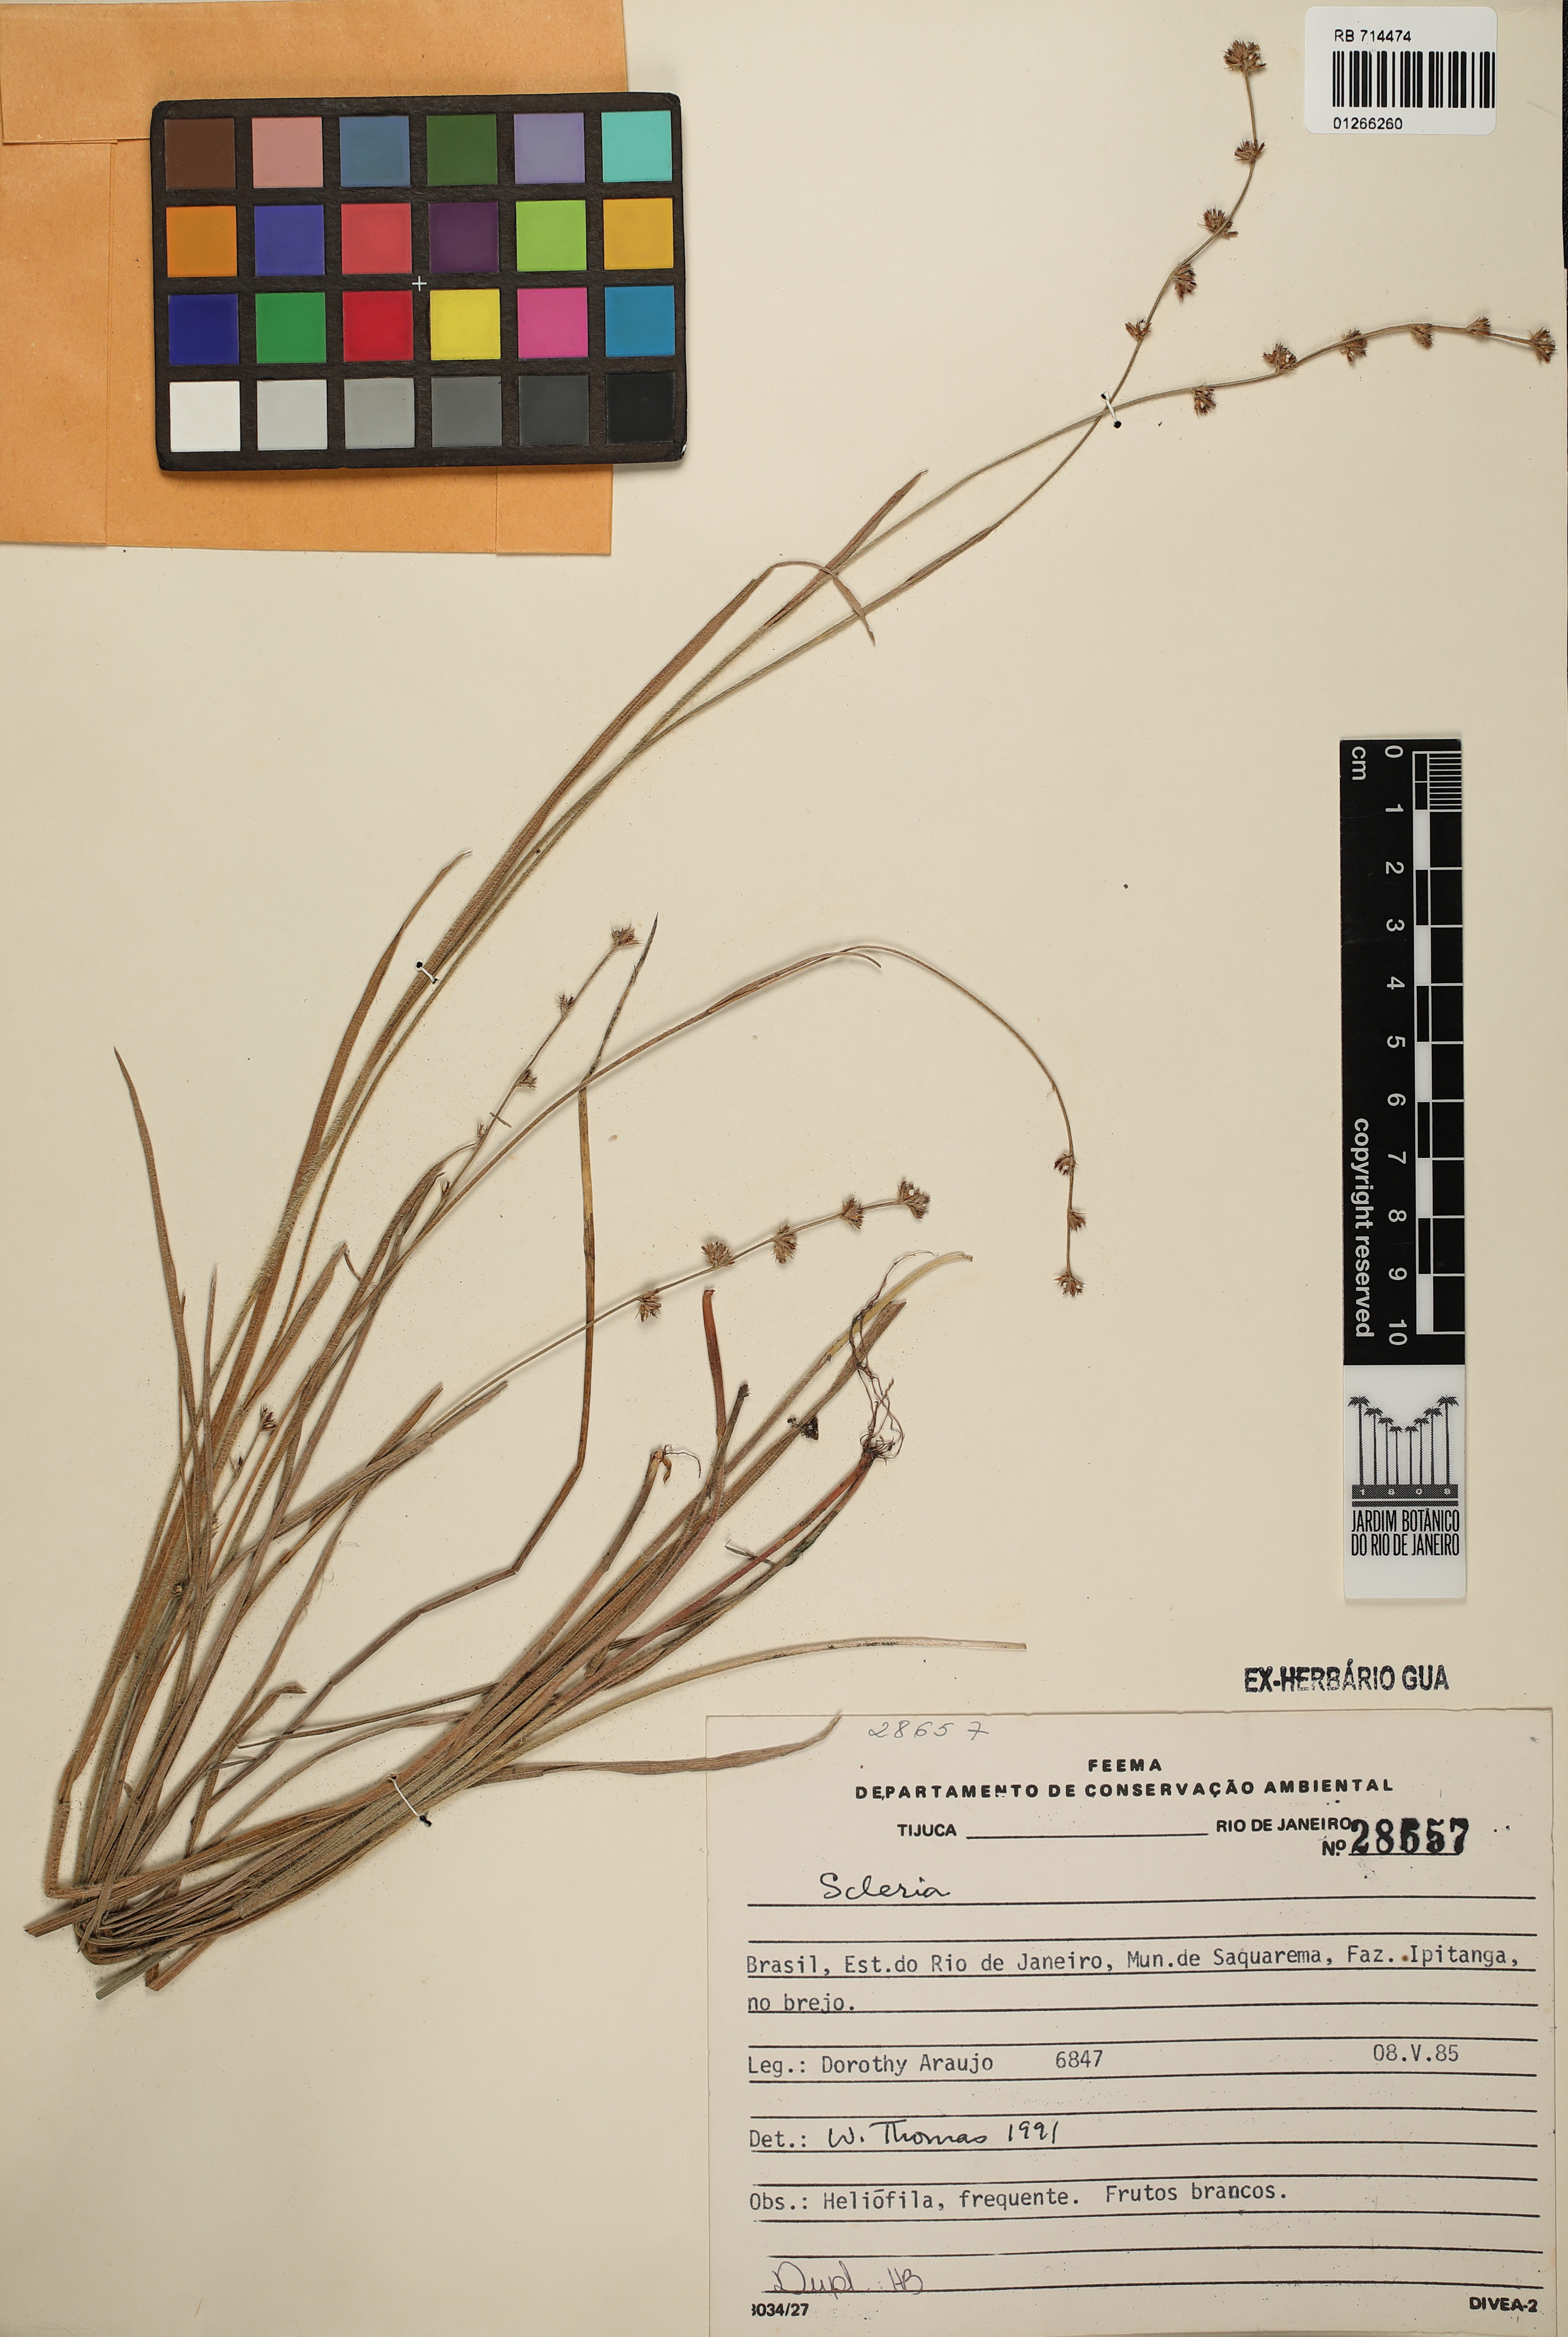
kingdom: Plantae
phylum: Tracheophyta
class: Liliopsida
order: Poales
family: Cyperaceae
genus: Scleria
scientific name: Scleria
